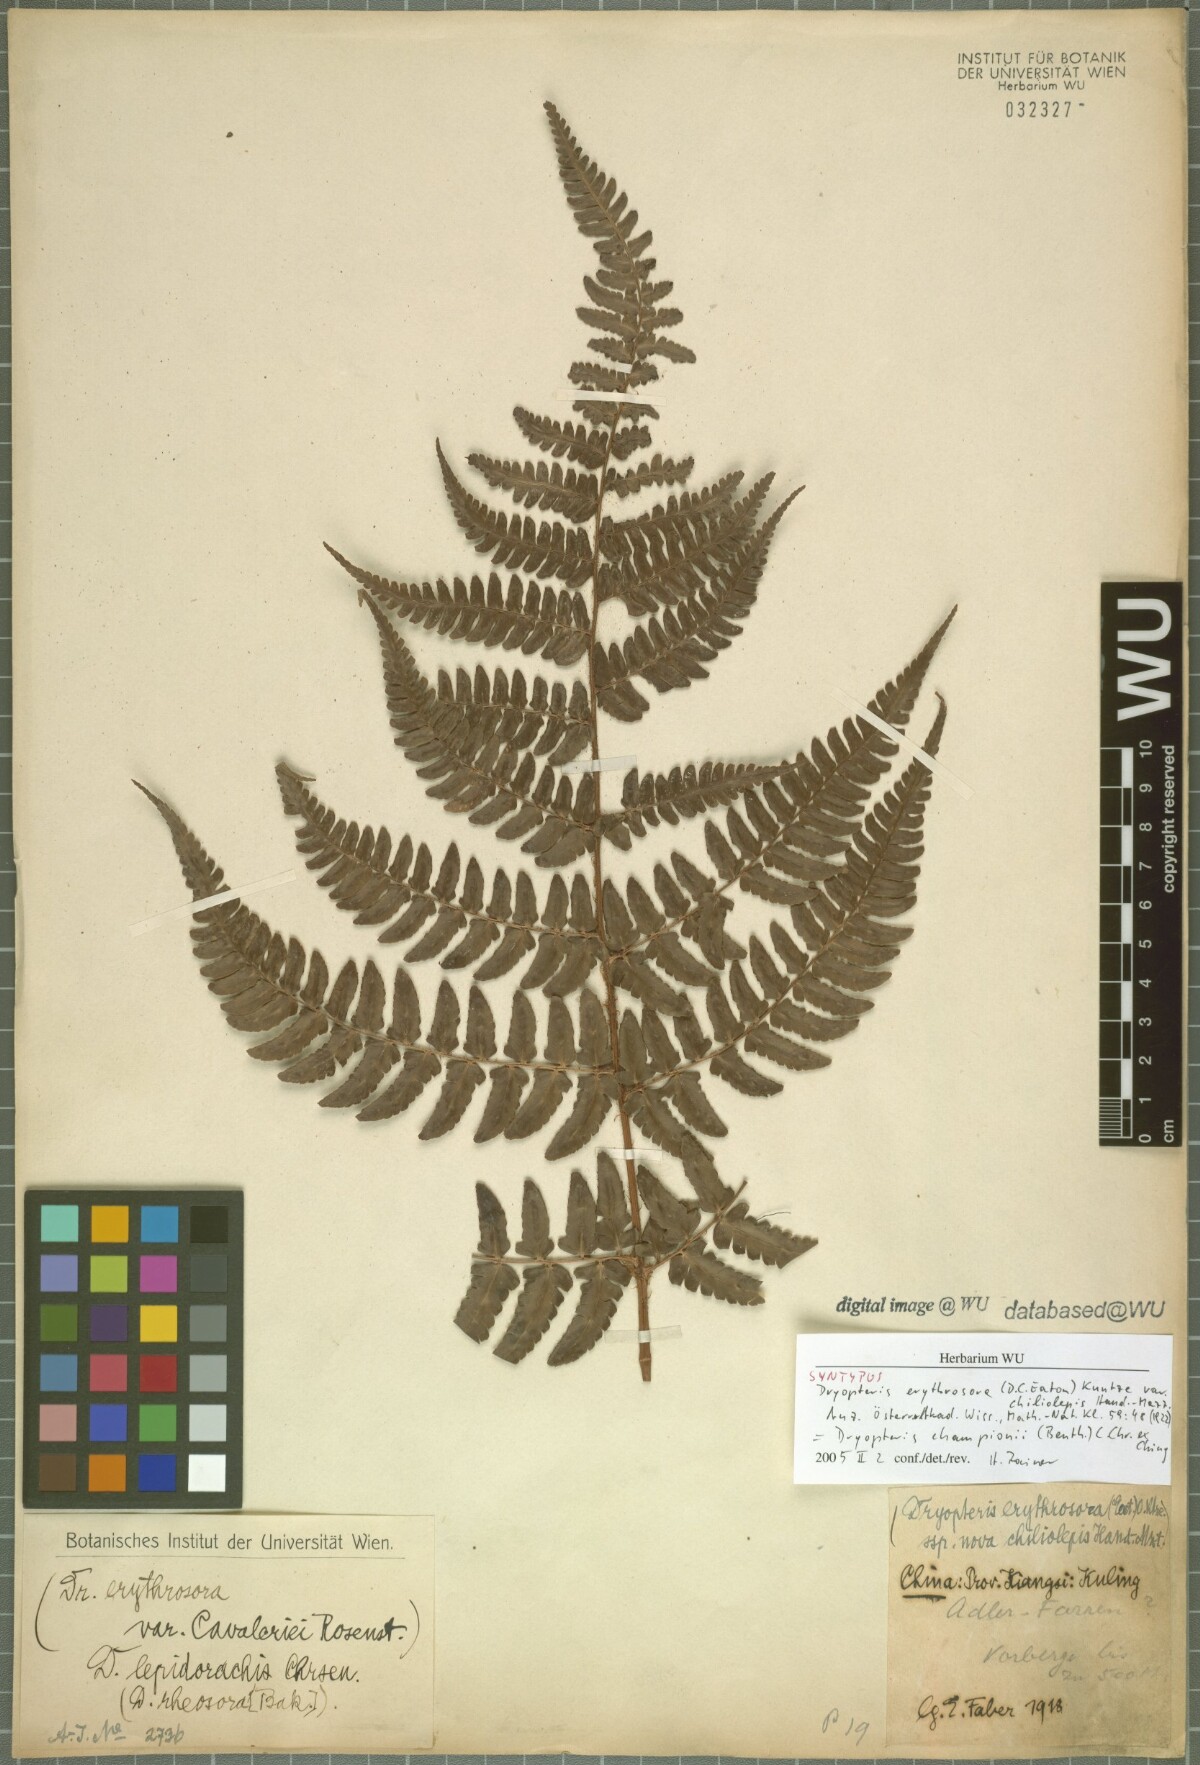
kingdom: Plantae
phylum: Tracheophyta
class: Polypodiopsida
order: Polypodiales
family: Dryopteridaceae
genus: Dryopteris
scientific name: Dryopteris championiae
